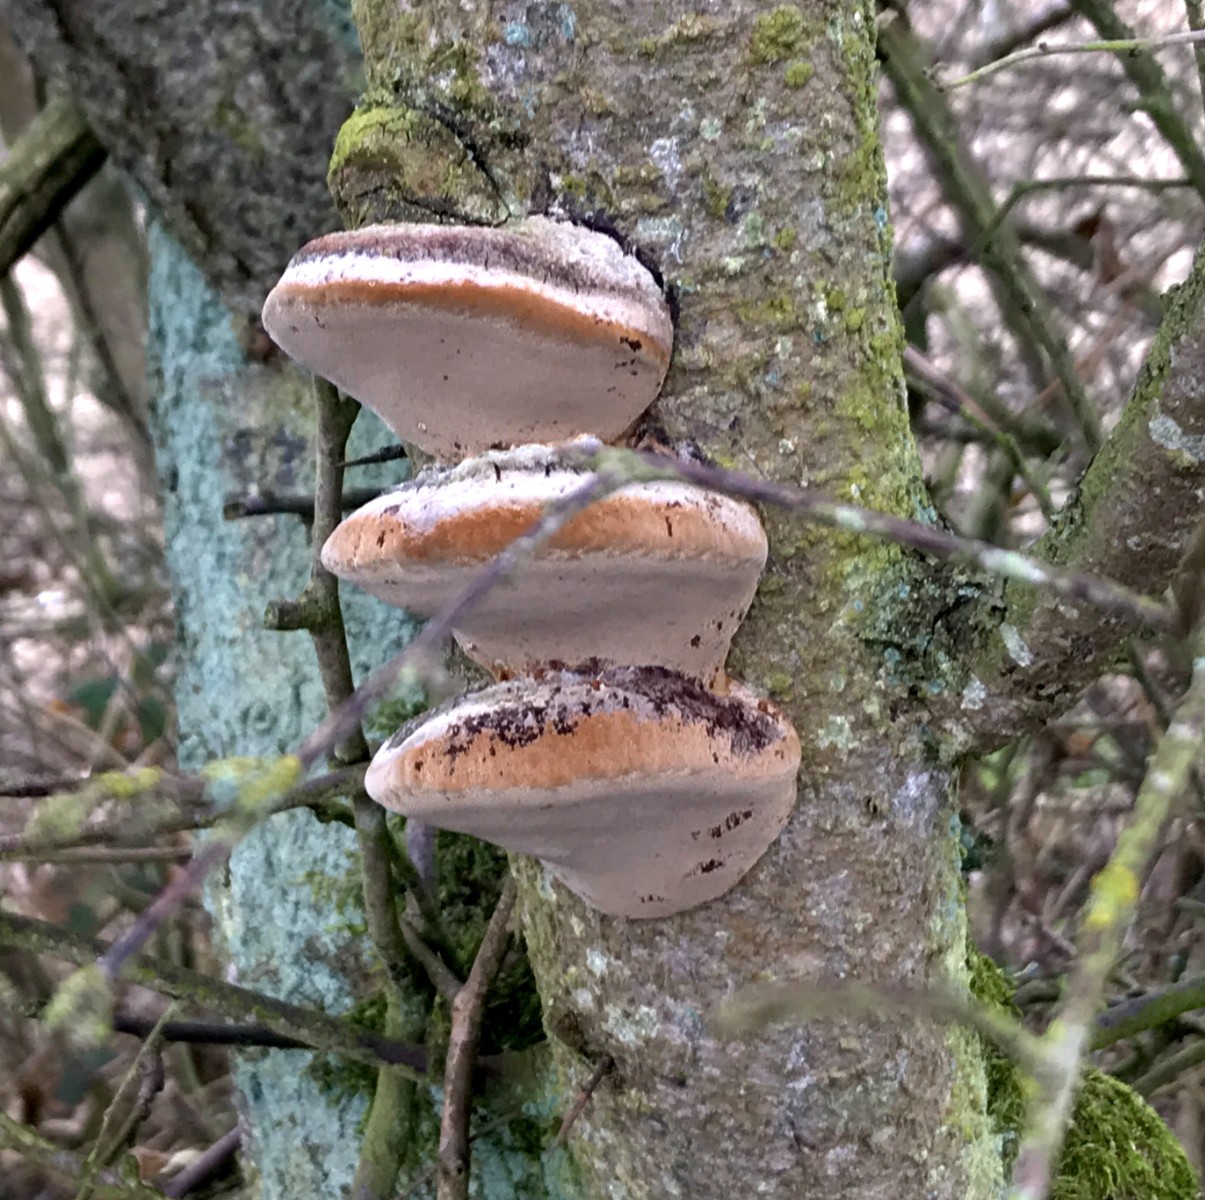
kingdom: Fungi
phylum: Basidiomycota
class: Agaricomycetes
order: Hymenochaetales
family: Hymenochaetaceae
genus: Phellinus
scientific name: Phellinus pomaceus
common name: blomme-ildporesvamp
